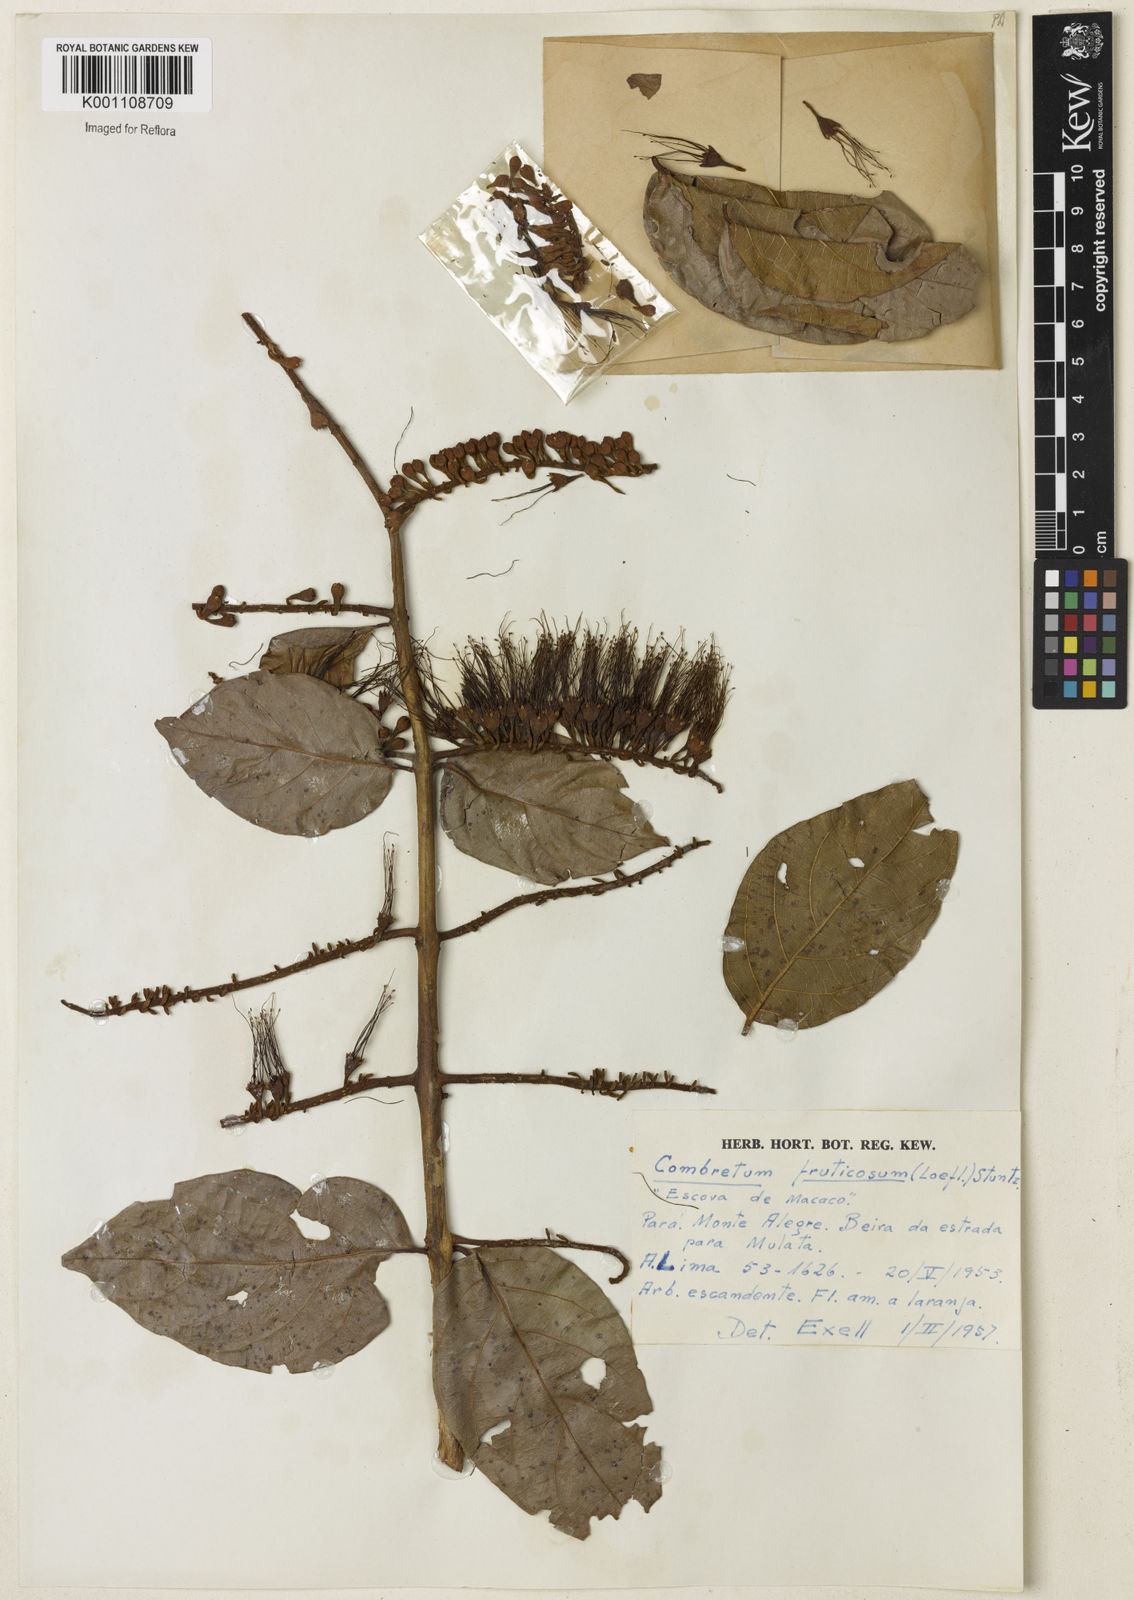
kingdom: Plantae
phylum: Tracheophyta
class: Magnoliopsida
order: Myrtales
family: Combretaceae
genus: Combretum
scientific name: Combretum fruticosum
